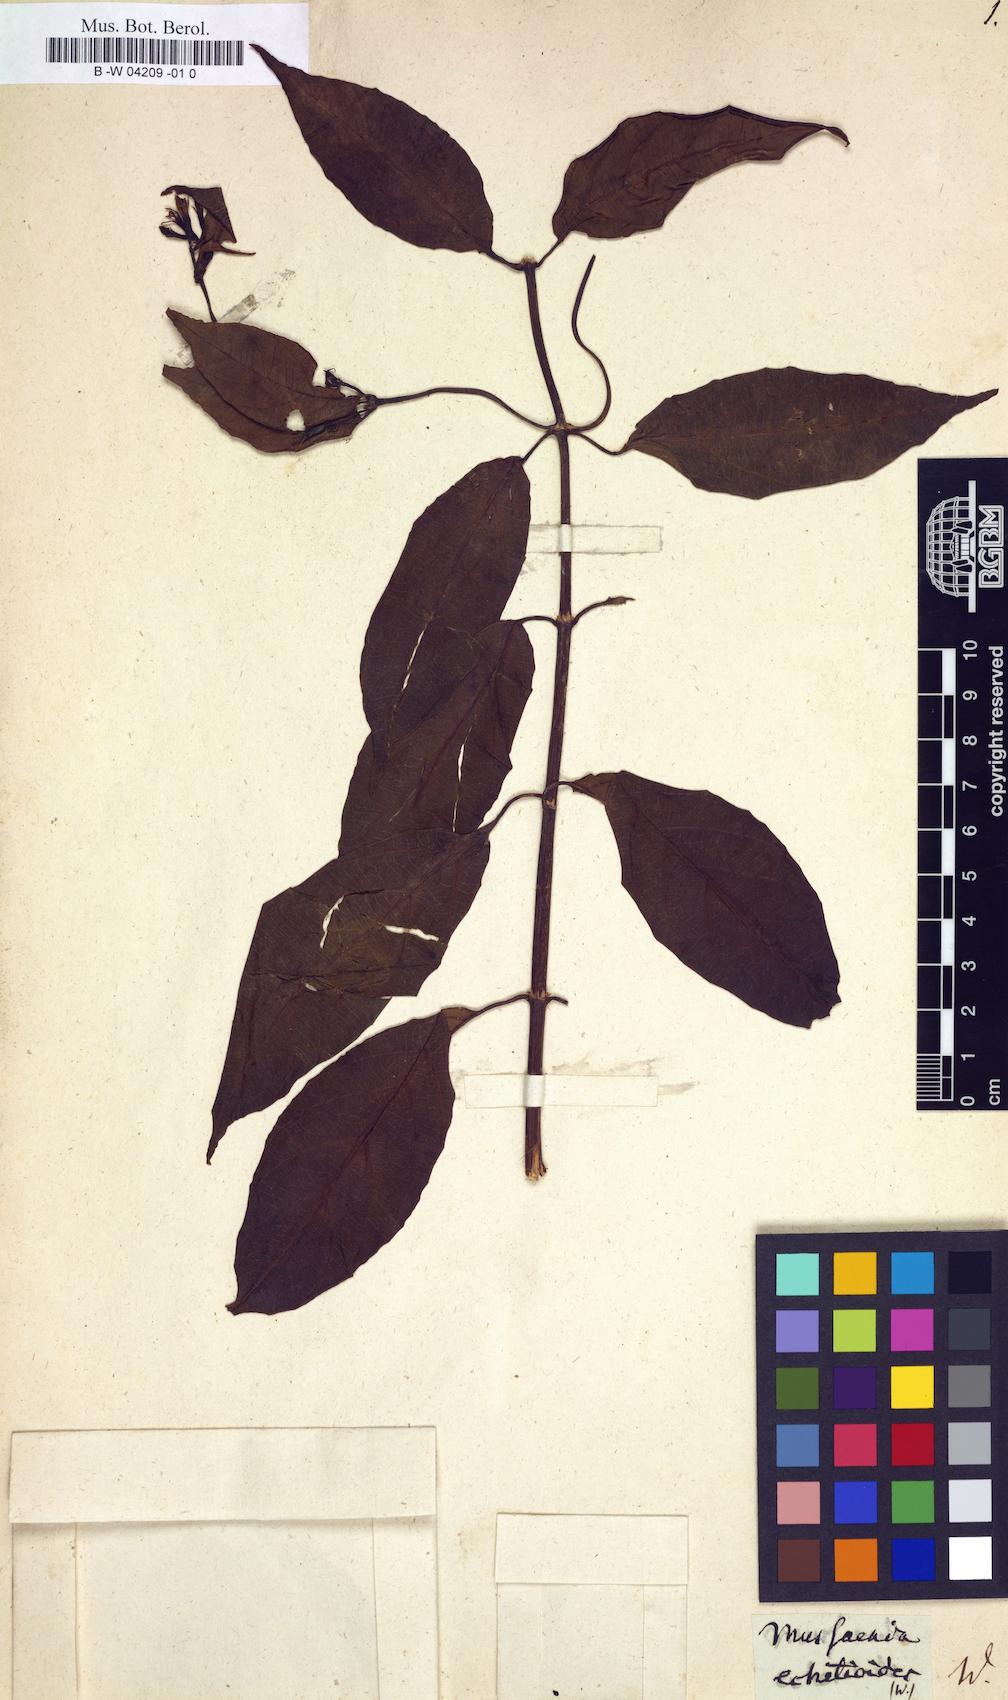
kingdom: Plantae
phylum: Tracheophyta
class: Magnoliopsida
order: Gentianales
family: Rubiaceae
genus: Mussaenda
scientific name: Mussaenda echitioides
